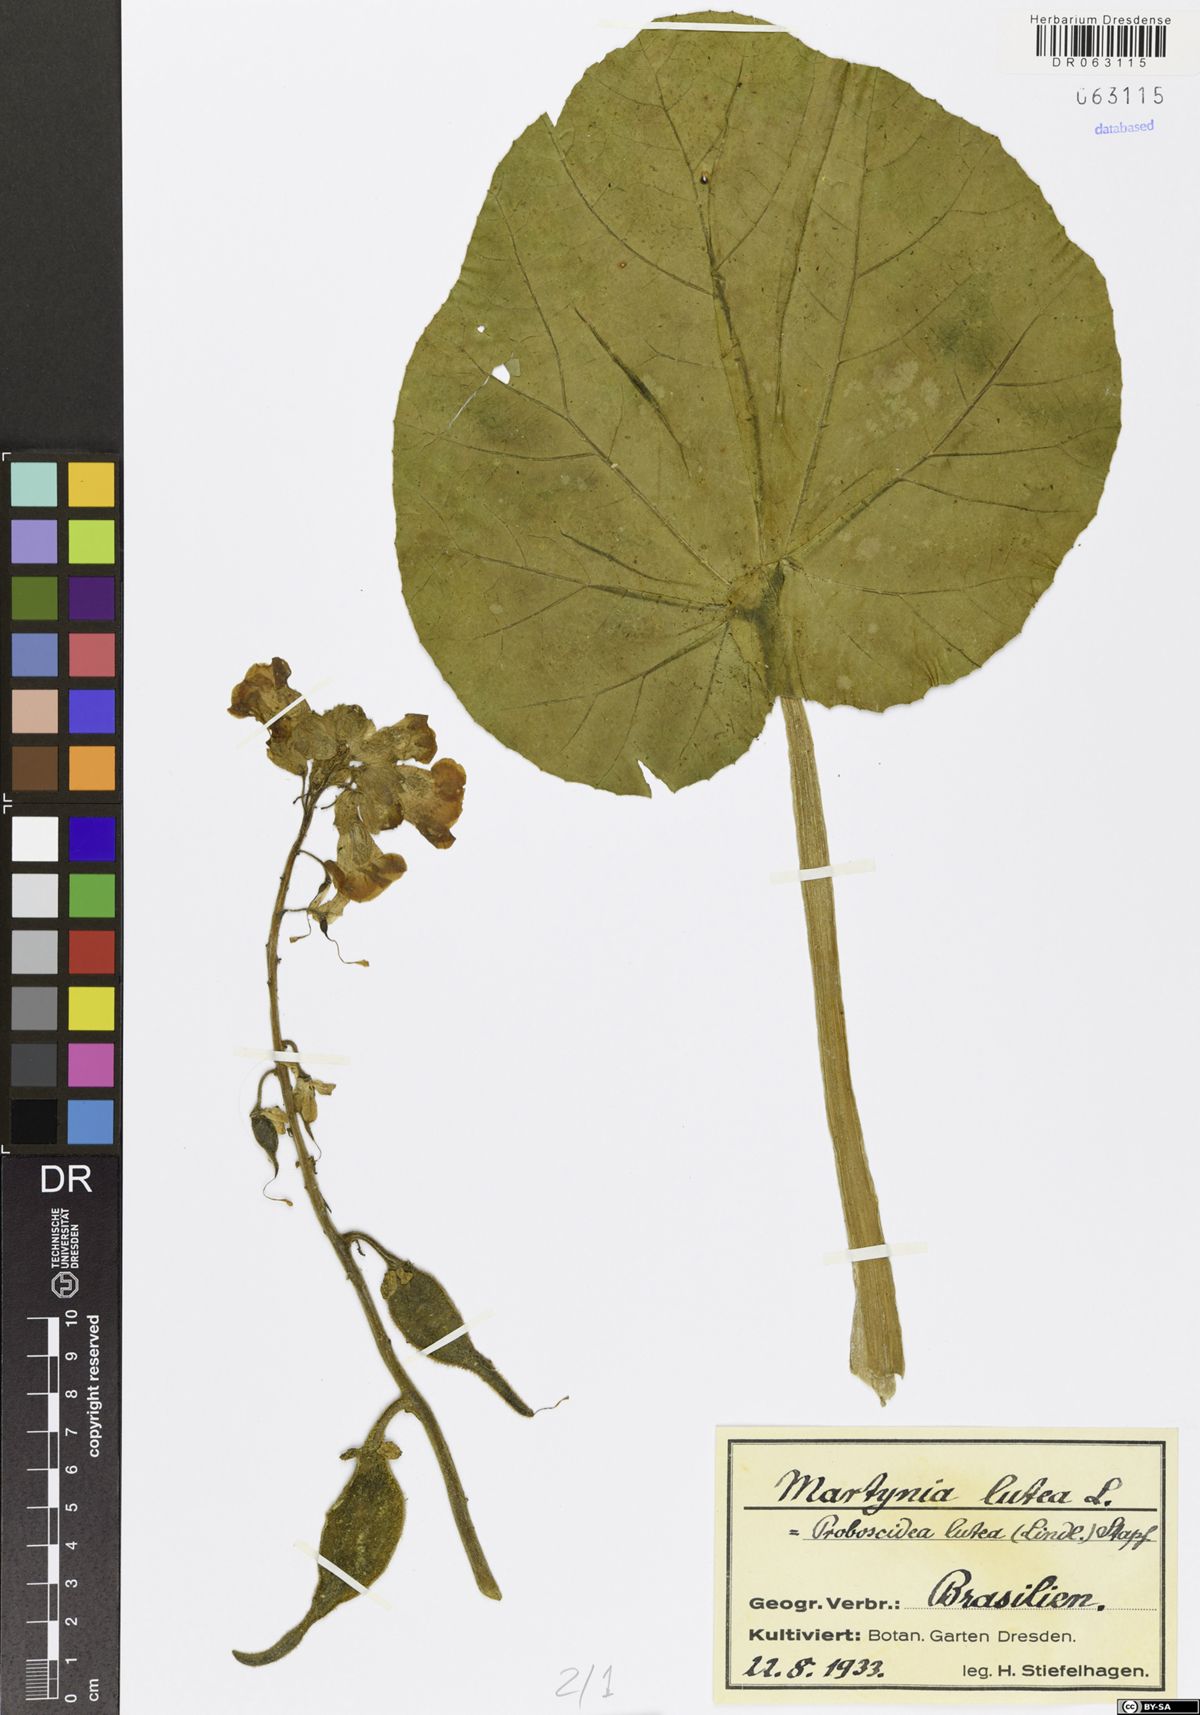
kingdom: Plantae
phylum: Tracheophyta
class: Magnoliopsida
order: Lamiales
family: Martyniaceae
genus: Ibicella
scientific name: Ibicella lutea
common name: Yellow unicorn-plant
